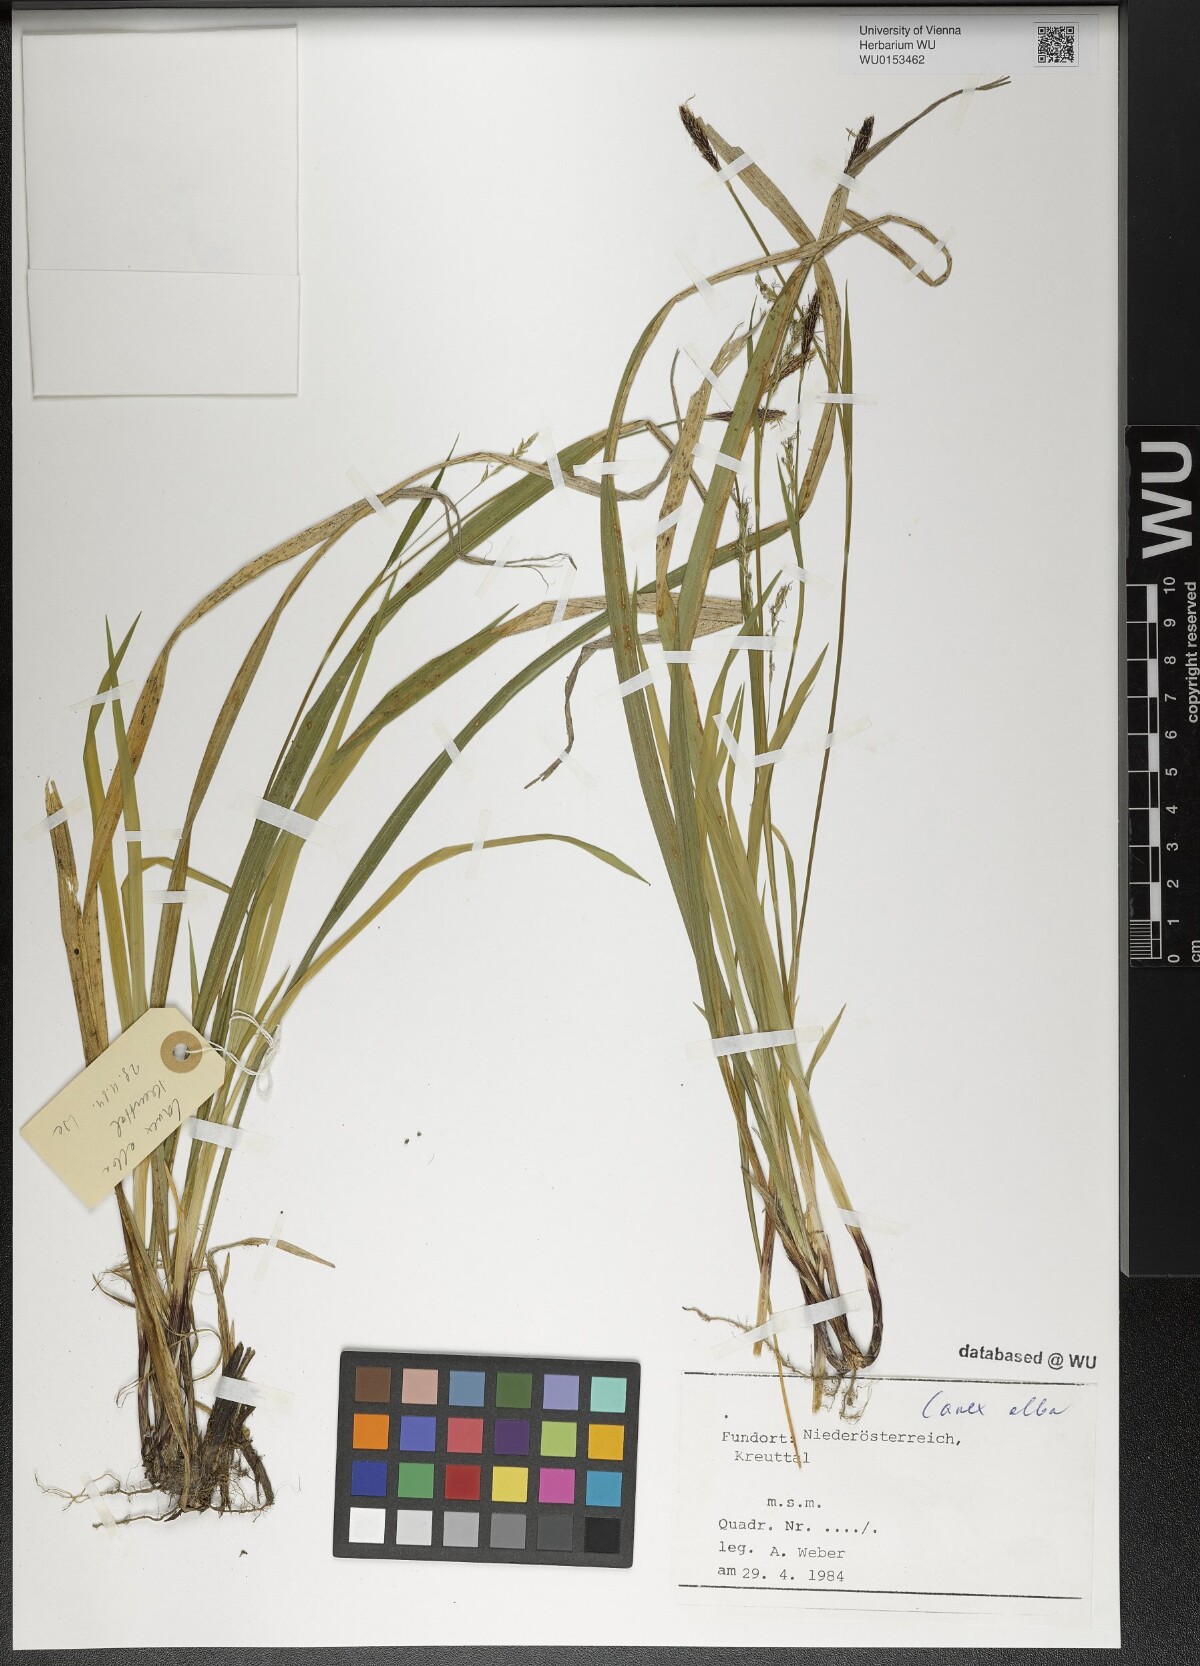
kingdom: Plantae
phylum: Tracheophyta
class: Liliopsida
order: Poales
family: Cyperaceae
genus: Carex
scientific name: Carex alba
